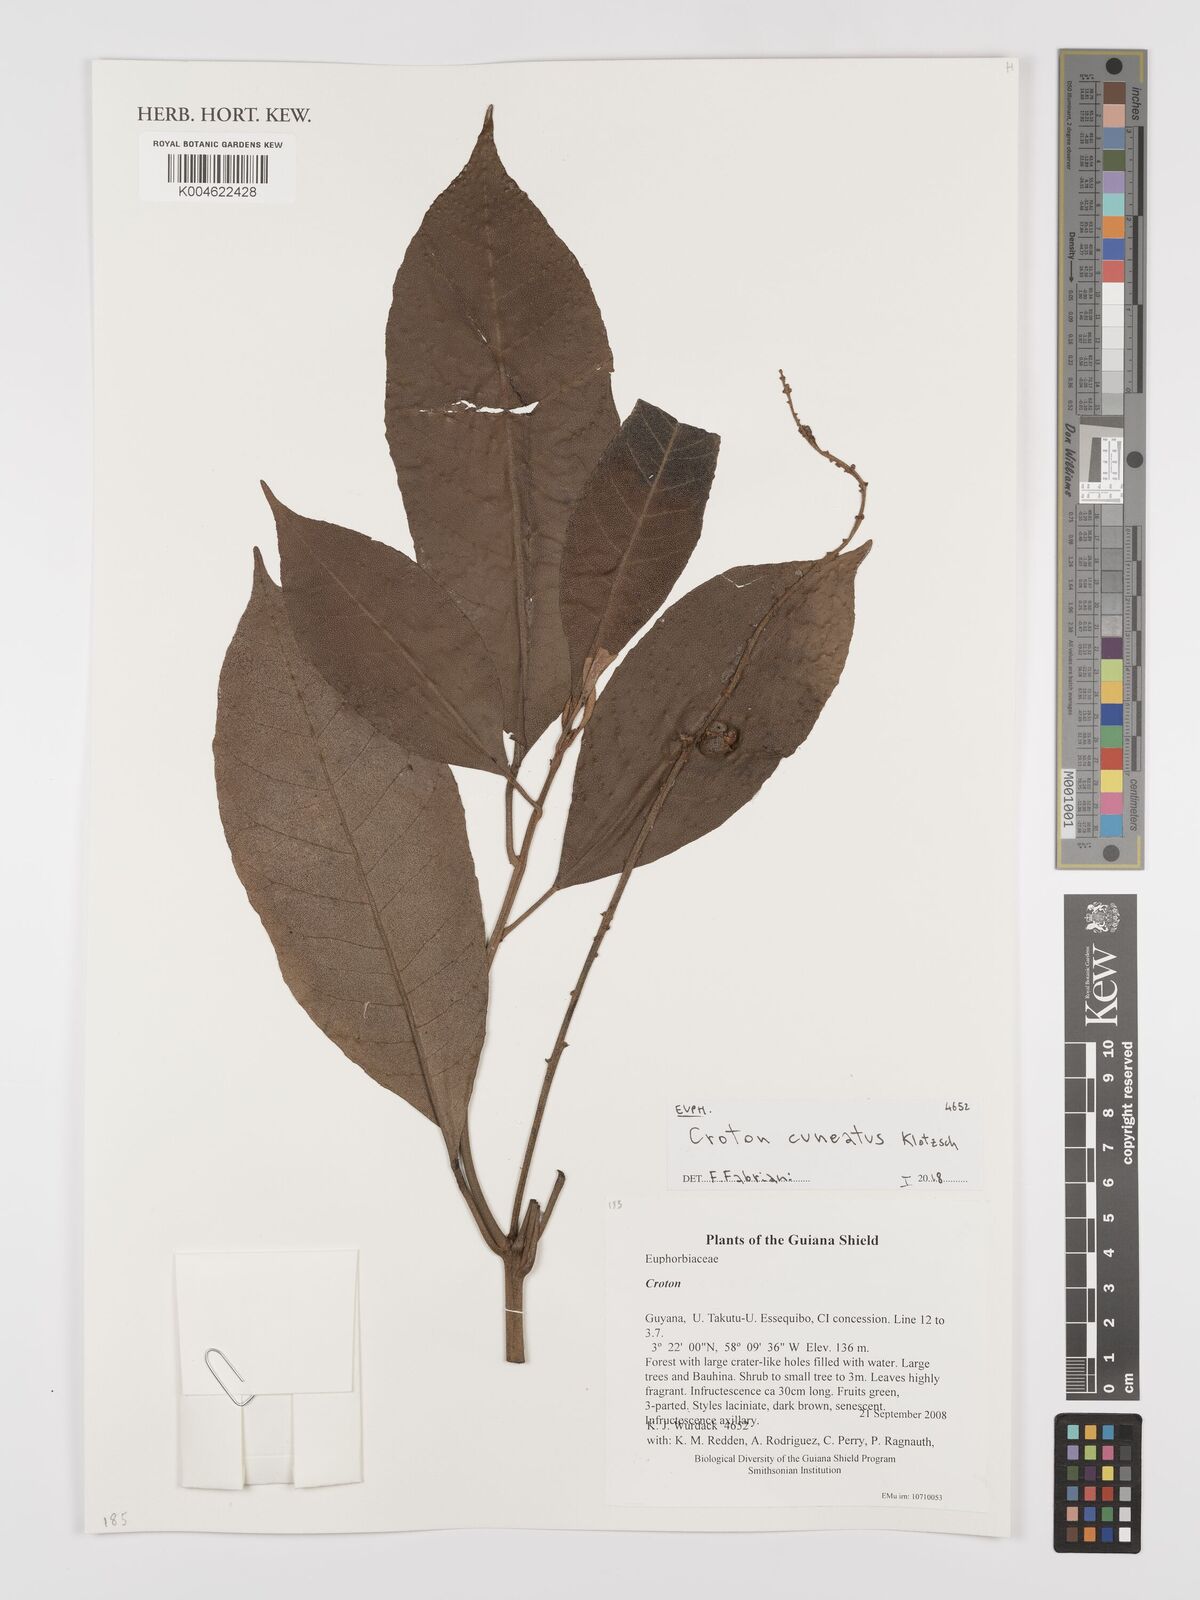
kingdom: Plantae
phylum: Tracheophyta
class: Magnoliopsida
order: Malpighiales
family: Euphorbiaceae
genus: Croton
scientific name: Croton
